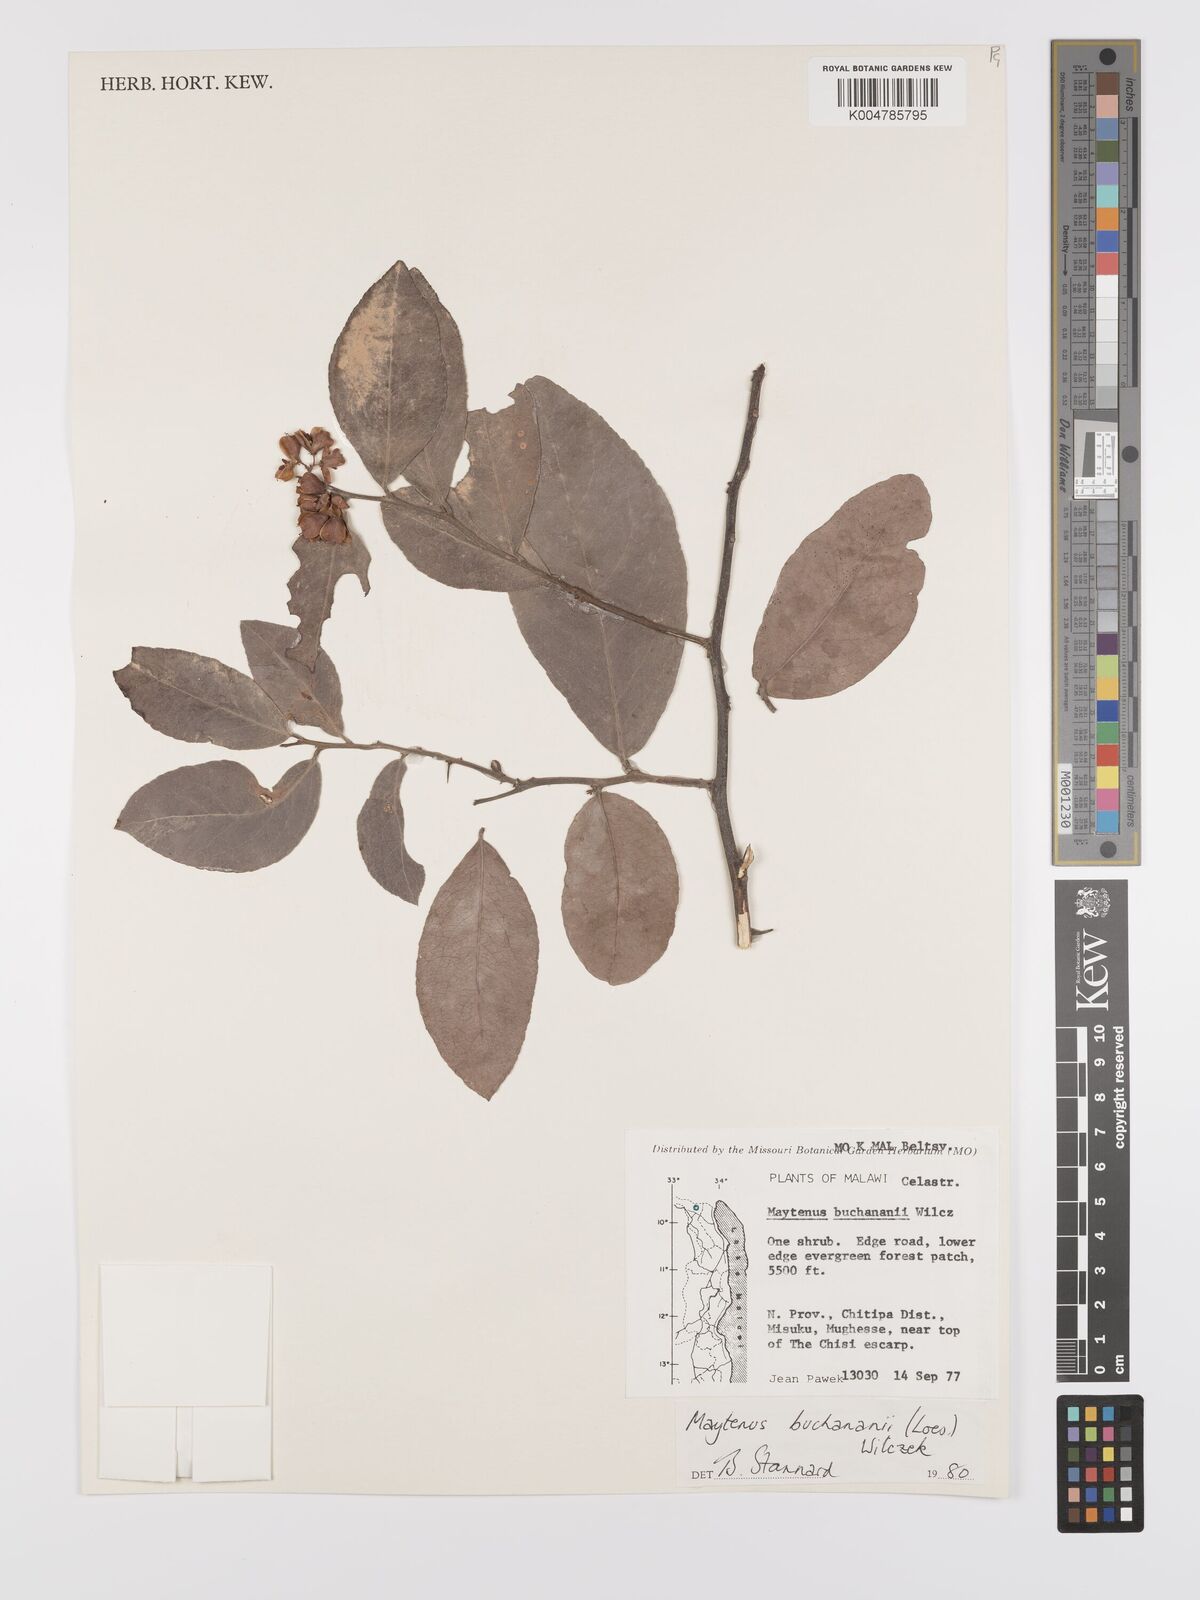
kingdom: Plantae
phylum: Tracheophyta
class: Magnoliopsida
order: Celastrales
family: Celastraceae
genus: Gymnosporia
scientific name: Gymnosporia buchananii
